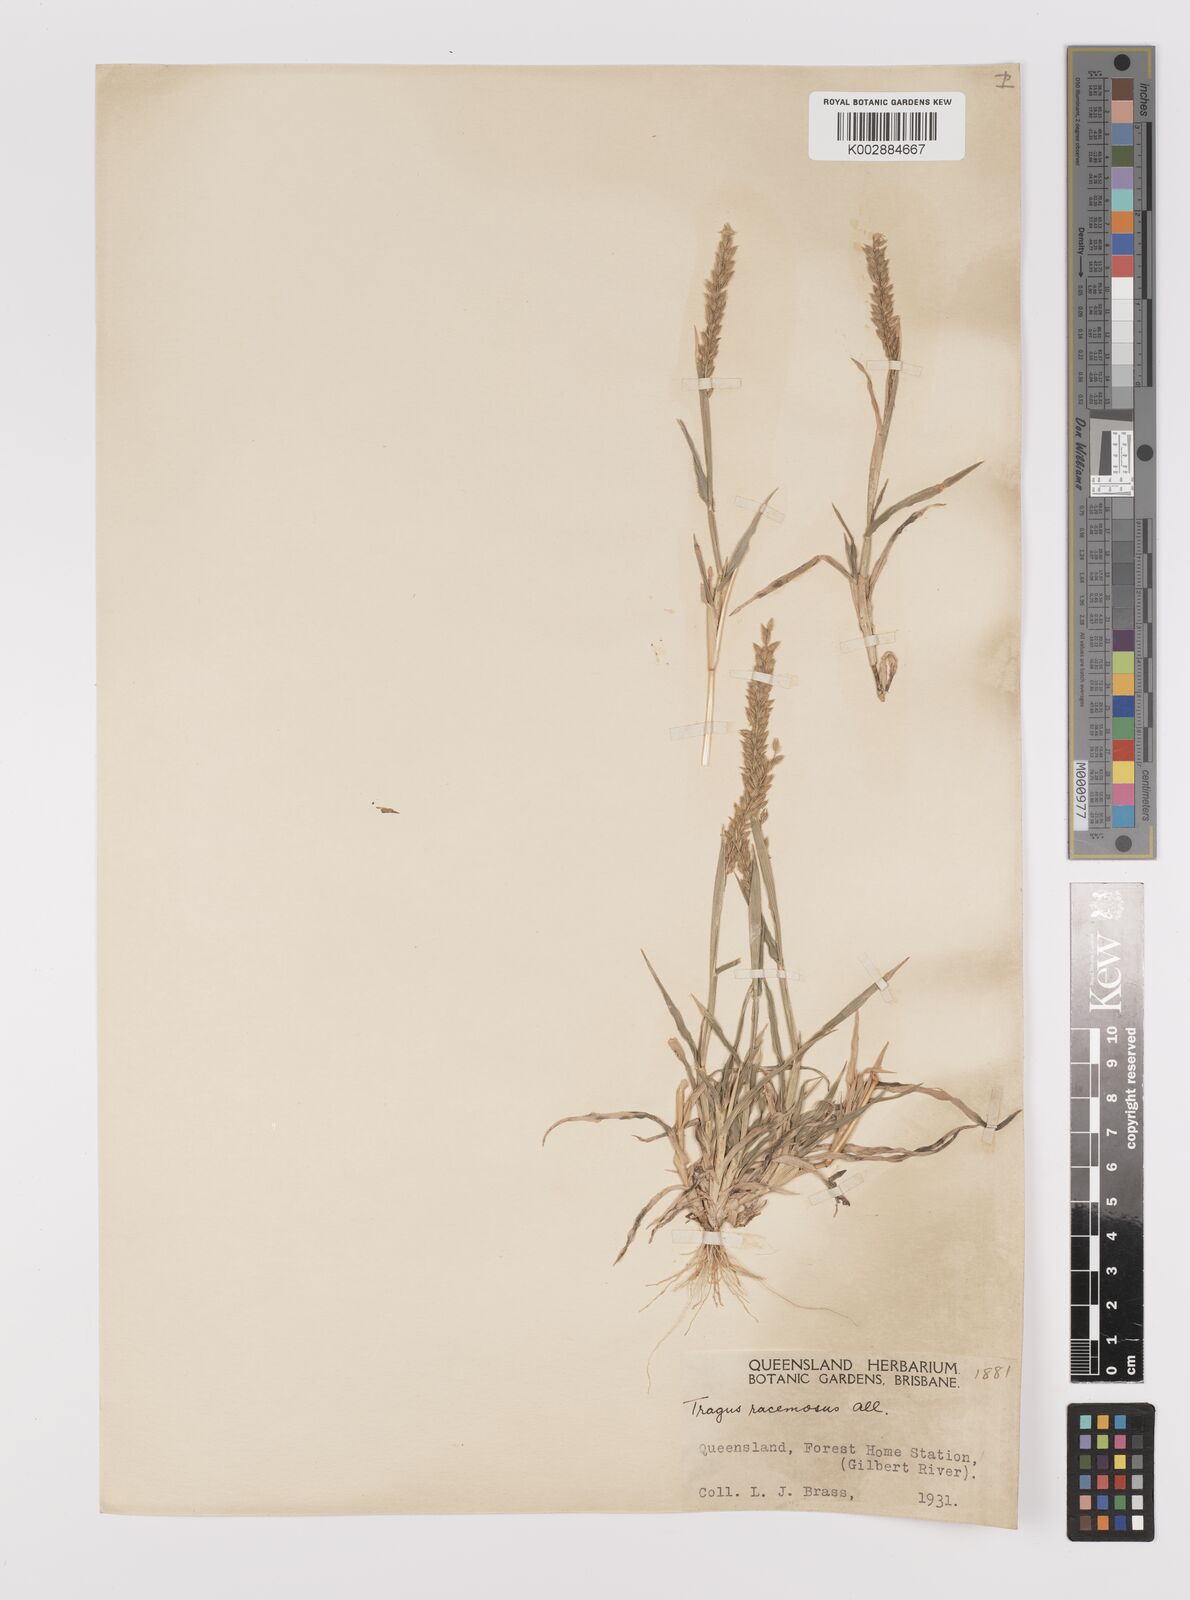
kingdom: Plantae
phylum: Tracheophyta
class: Liliopsida
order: Poales
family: Poaceae
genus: Tragus
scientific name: Tragus australianus
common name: Australian bur-grass
